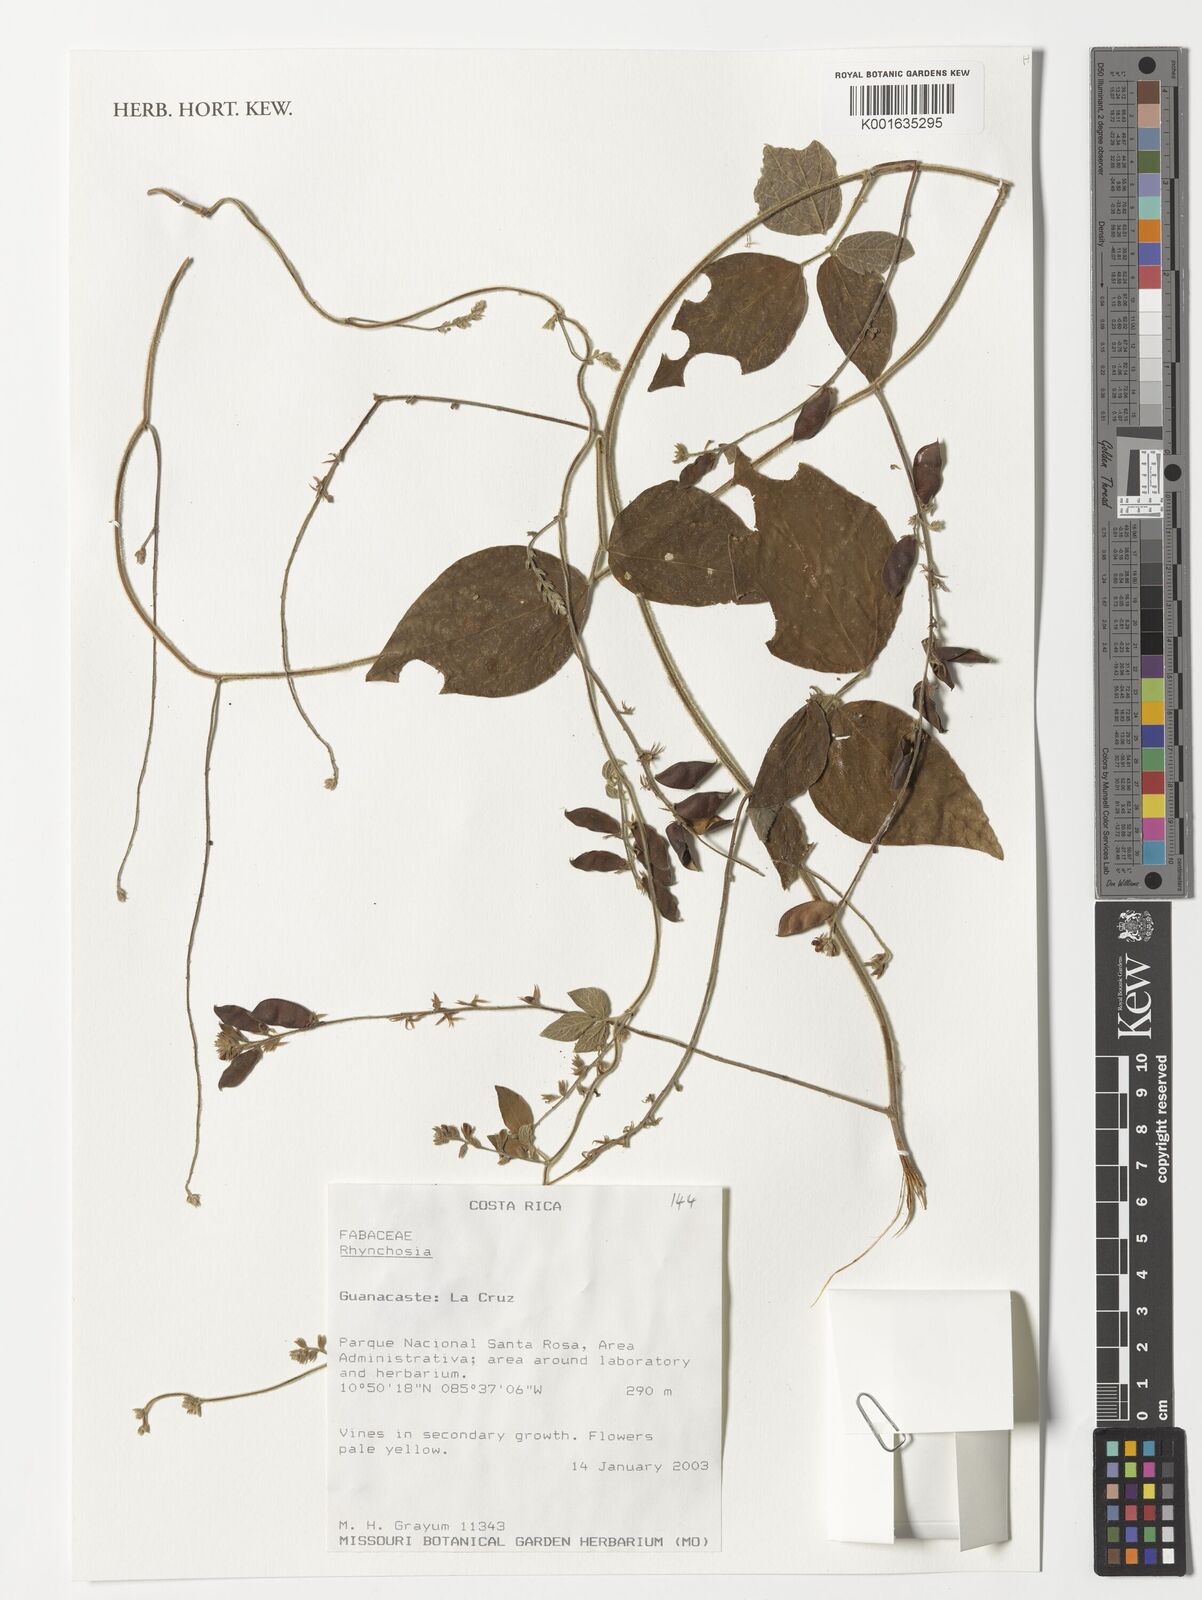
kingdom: Plantae
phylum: Tracheophyta
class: Magnoliopsida
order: Fabales
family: Fabaceae
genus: Rhynchosia
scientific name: Rhynchosia
